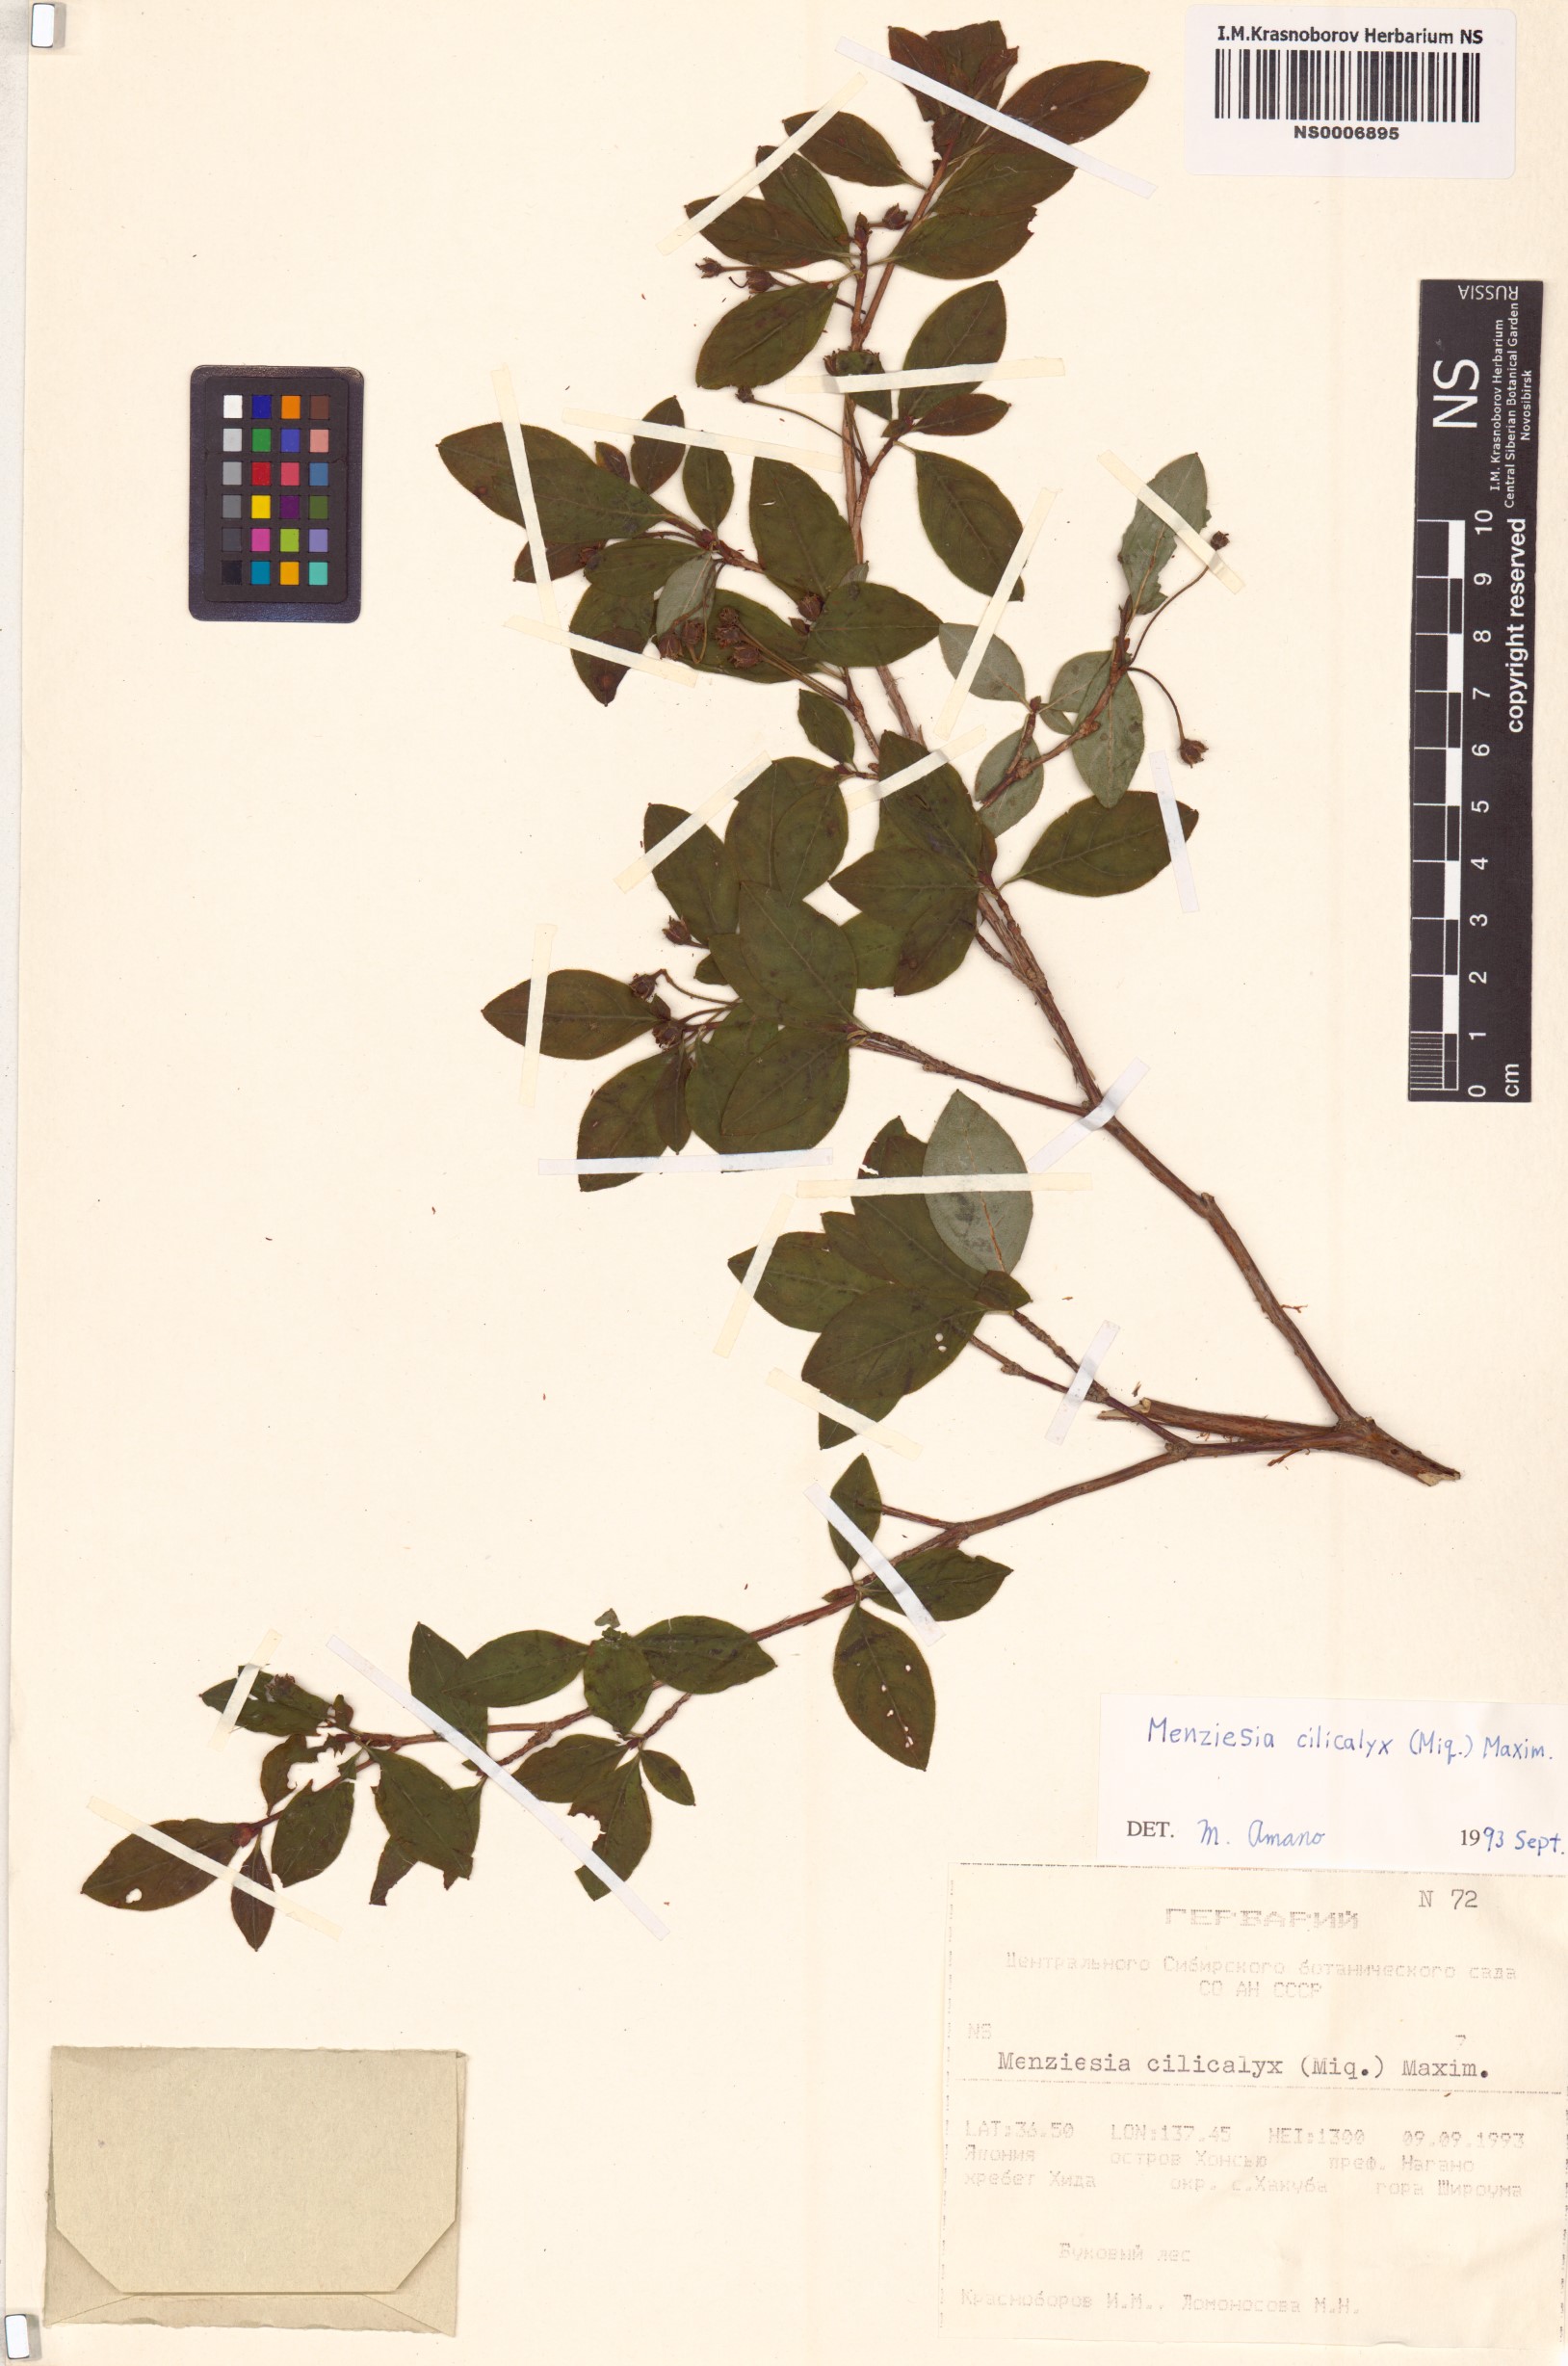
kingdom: Plantae
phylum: Tracheophyta
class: Magnoliopsida
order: Ericales
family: Ericaceae
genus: Rhododendron
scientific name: Rhododendron benhallii
